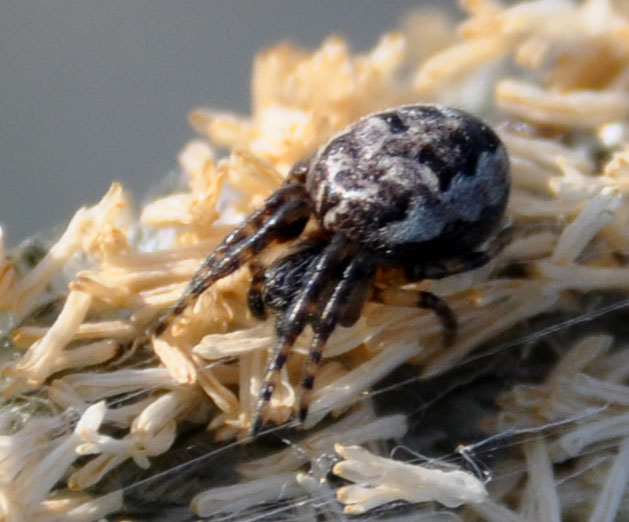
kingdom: Animalia
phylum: Arthropoda
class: Arachnida
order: Araneae
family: Araneidae
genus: Larinioides
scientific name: Larinioides cornutus
